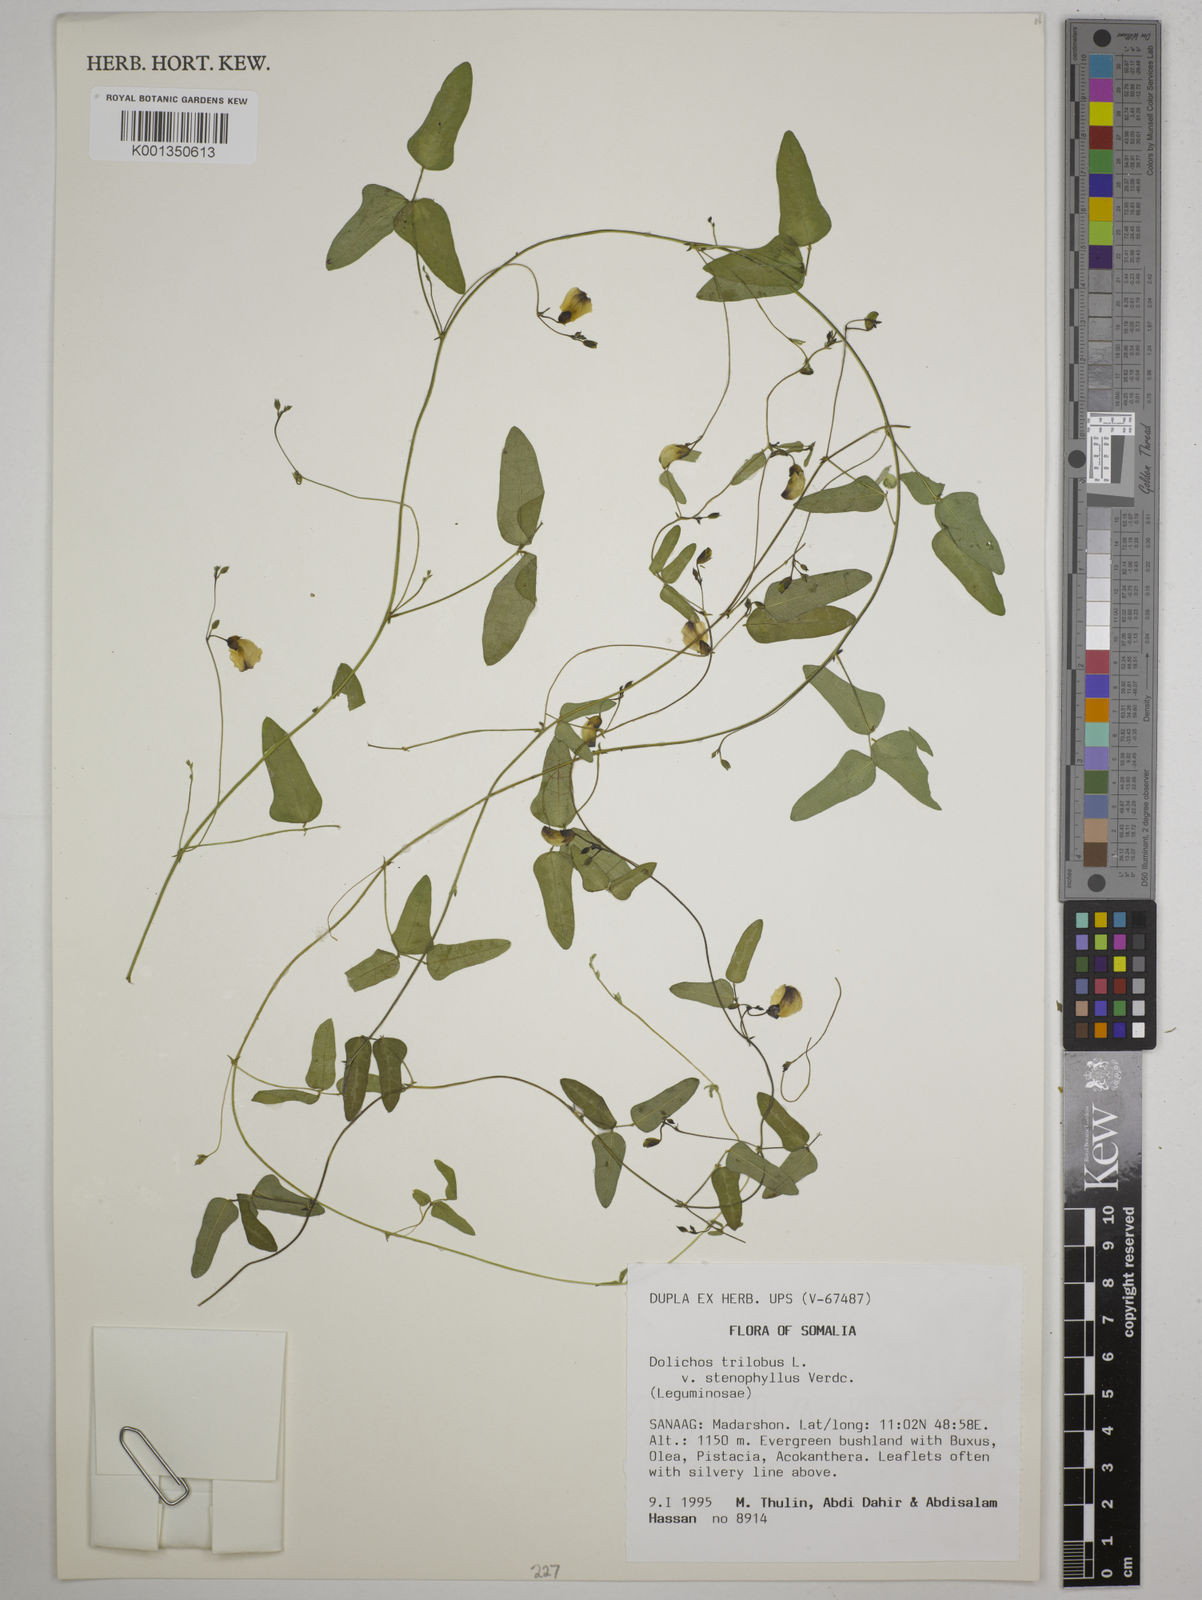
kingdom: Plantae
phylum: Tracheophyta
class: Magnoliopsida
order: Fabales
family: Fabaceae
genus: Dolichos
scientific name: Dolichos trilobus
